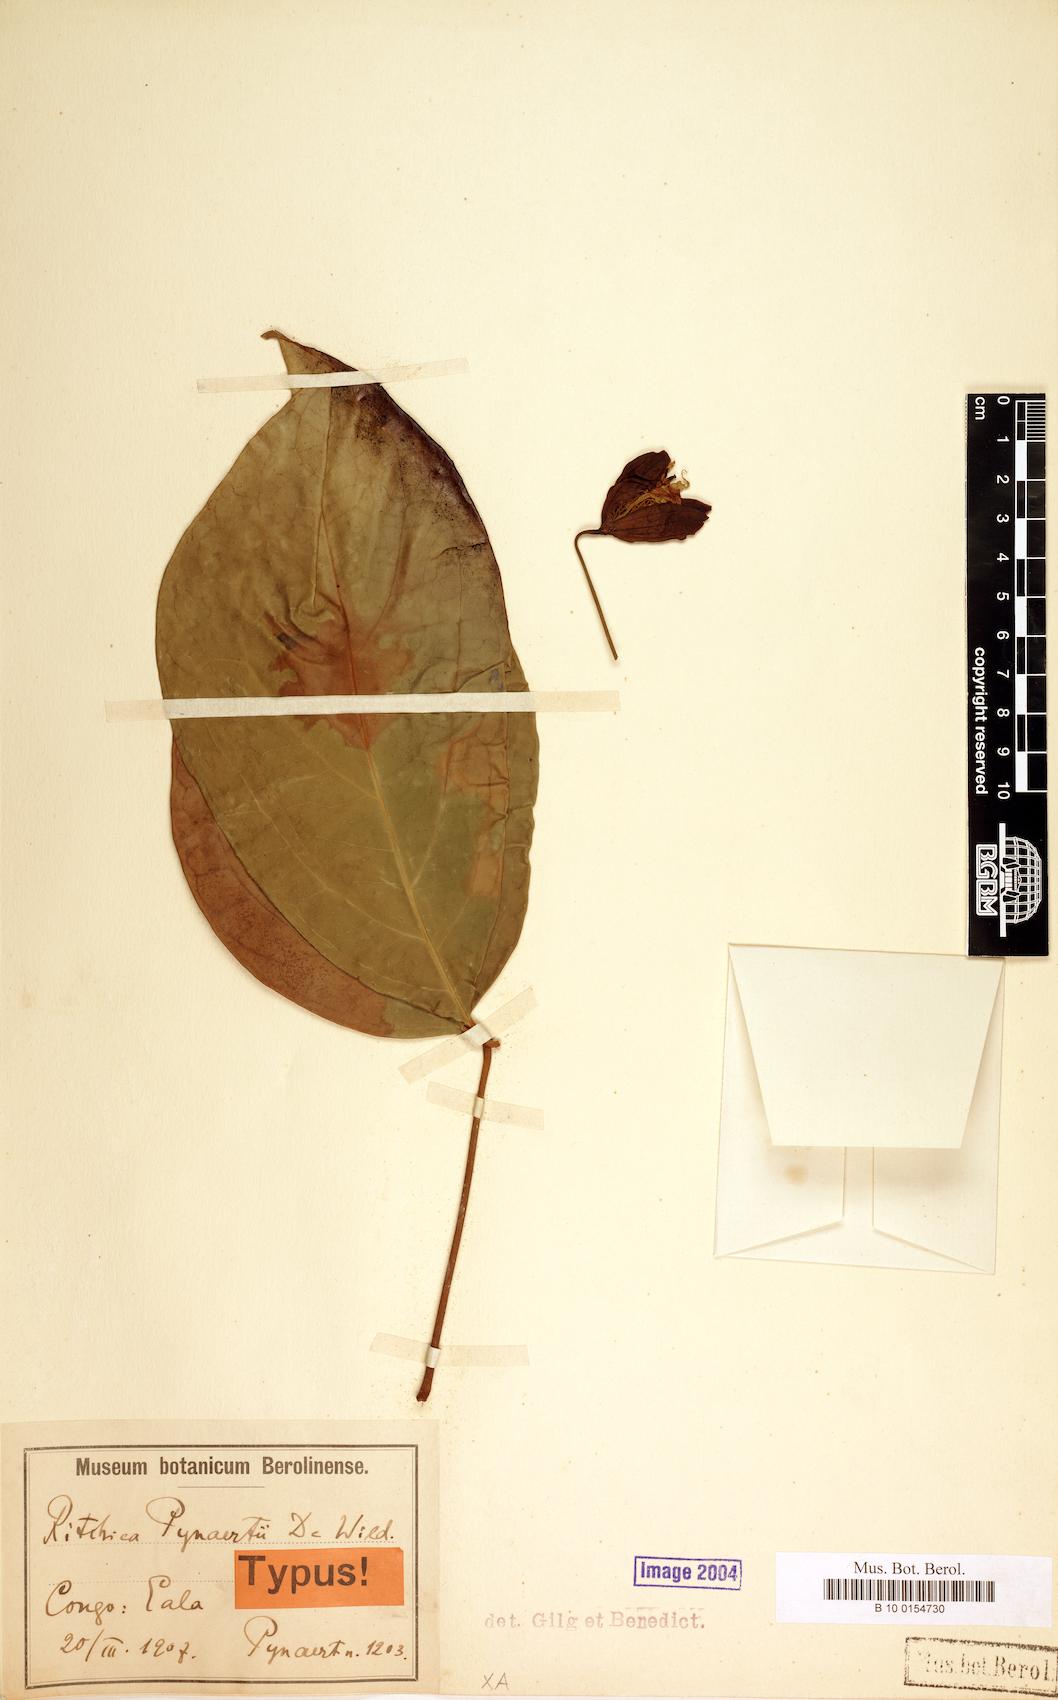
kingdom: Plantae
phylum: Tracheophyta
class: Magnoliopsida
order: Brassicales
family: Capparaceae
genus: Ritchiea
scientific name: Ritchiea capparoides
